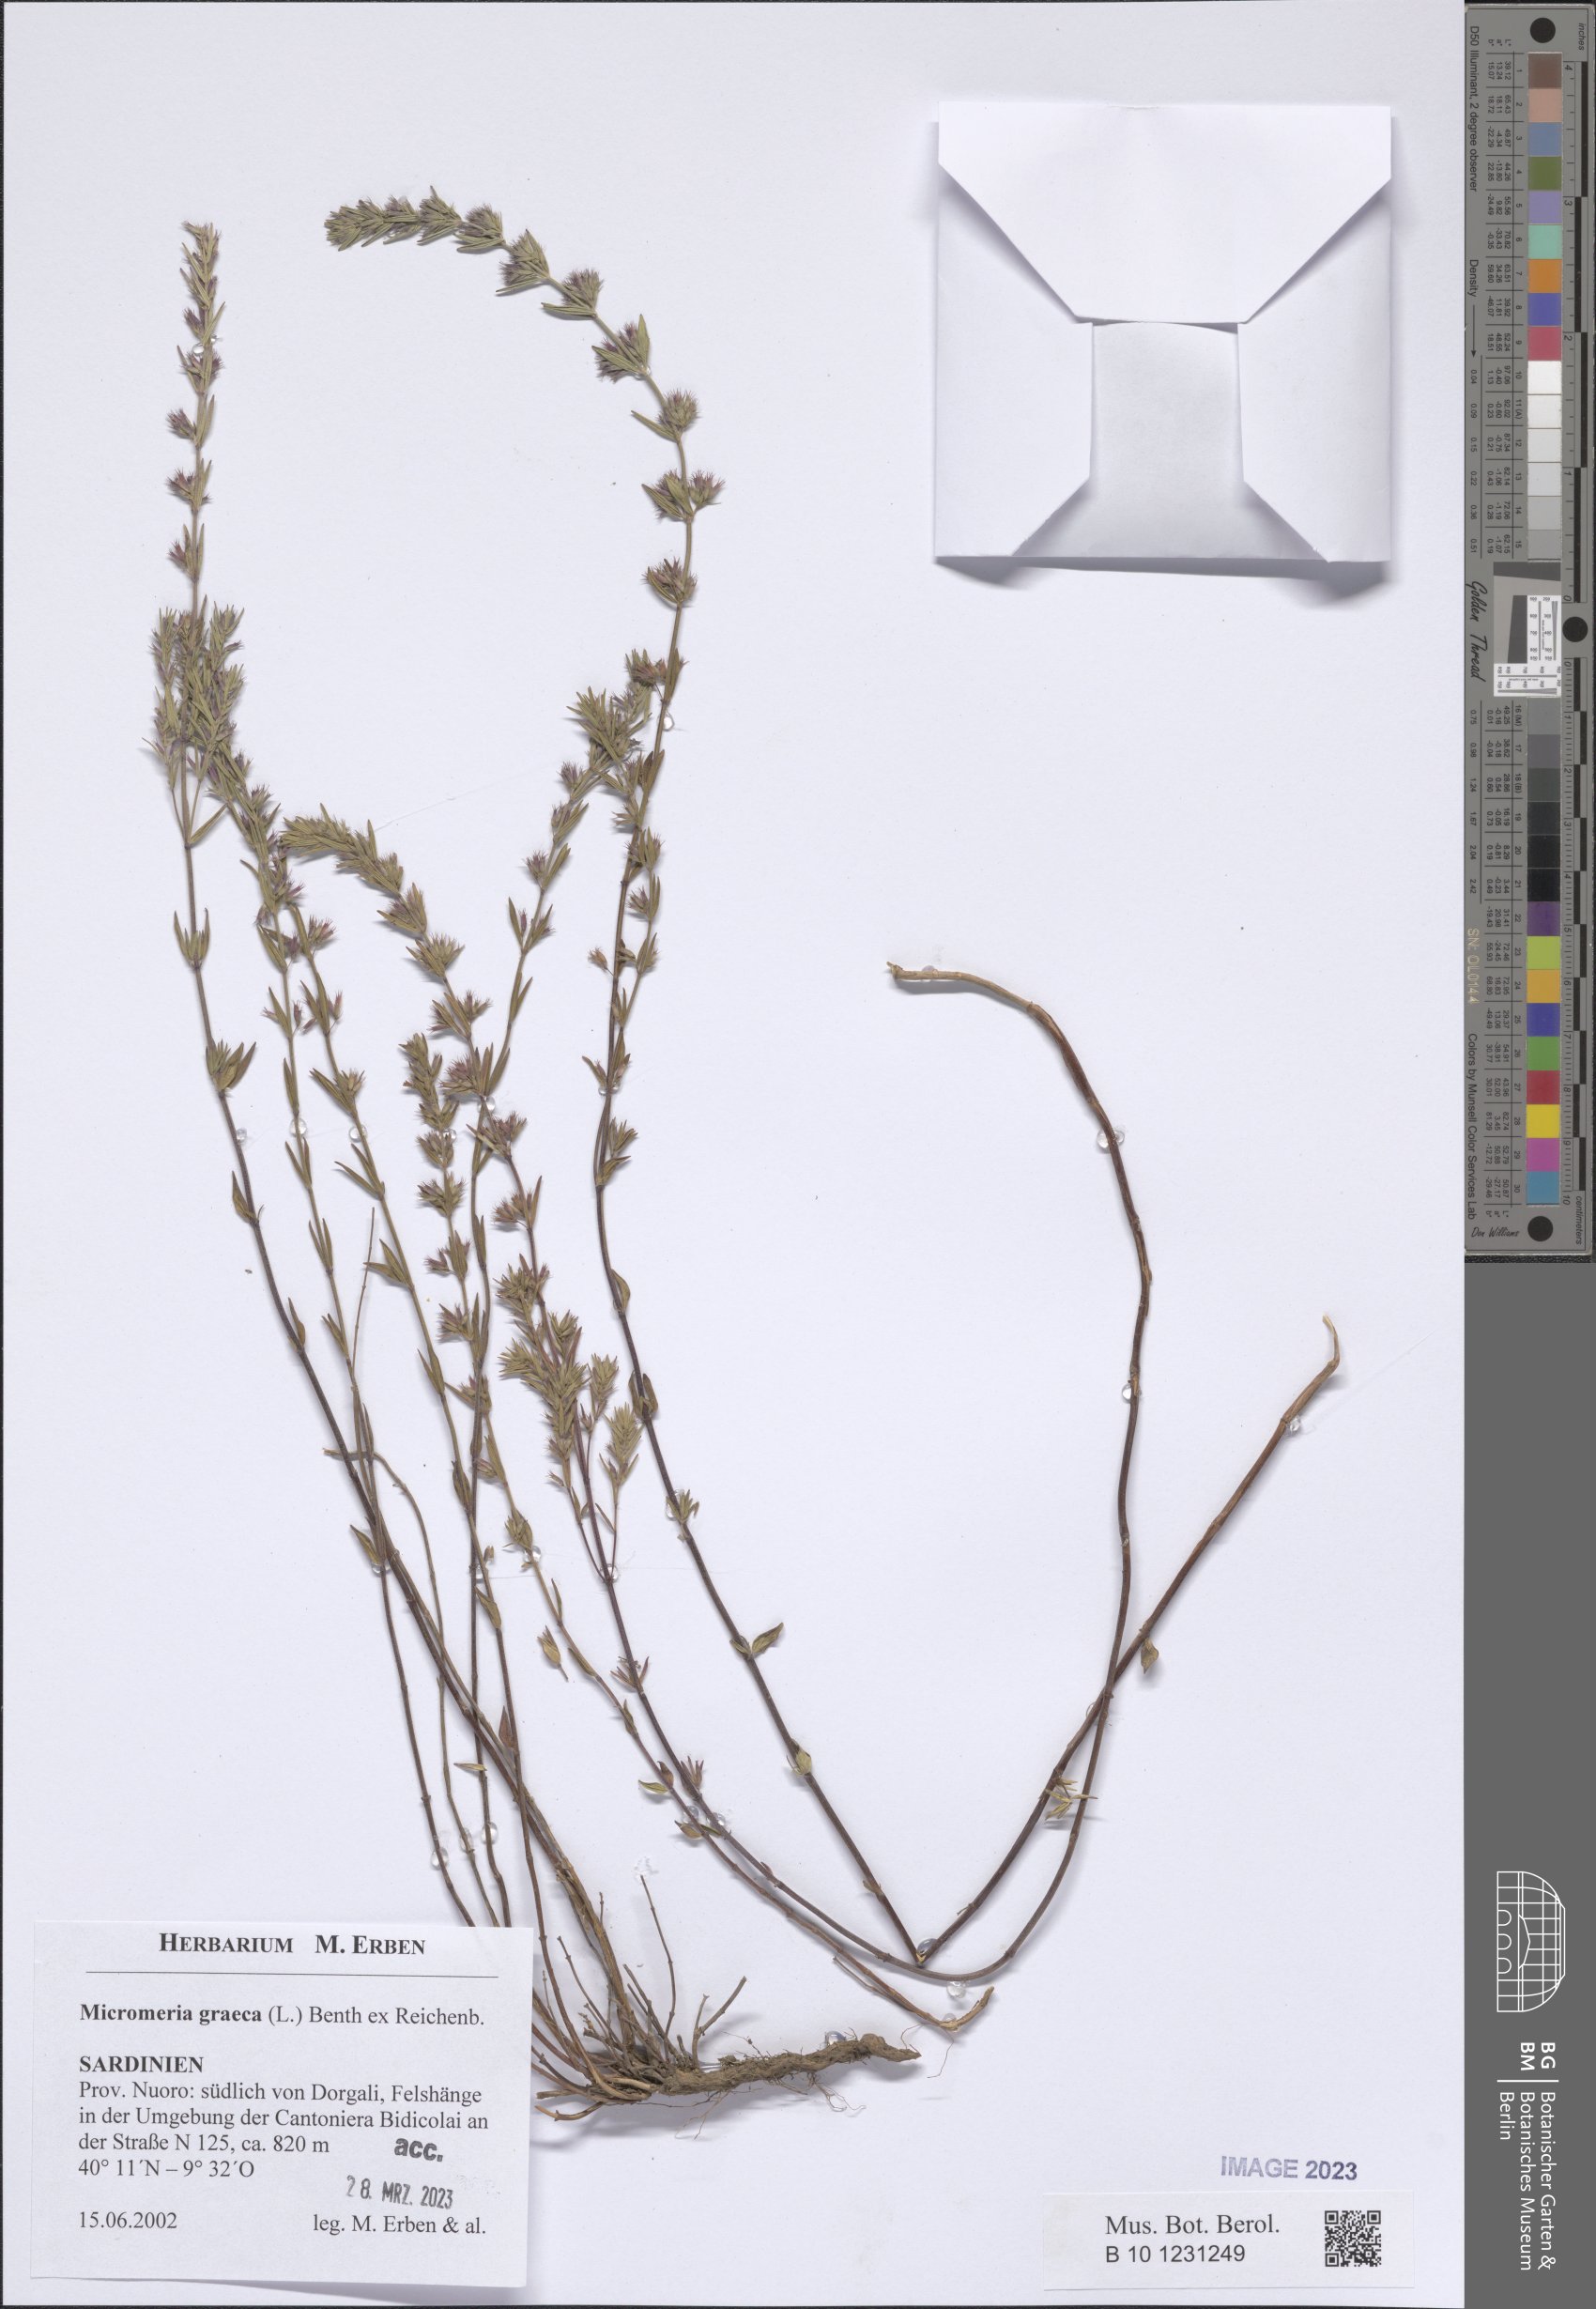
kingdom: Plantae
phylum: Tracheophyta
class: Magnoliopsida
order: Lamiales
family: Lamiaceae
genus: Micromeria
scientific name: Micromeria graeca
